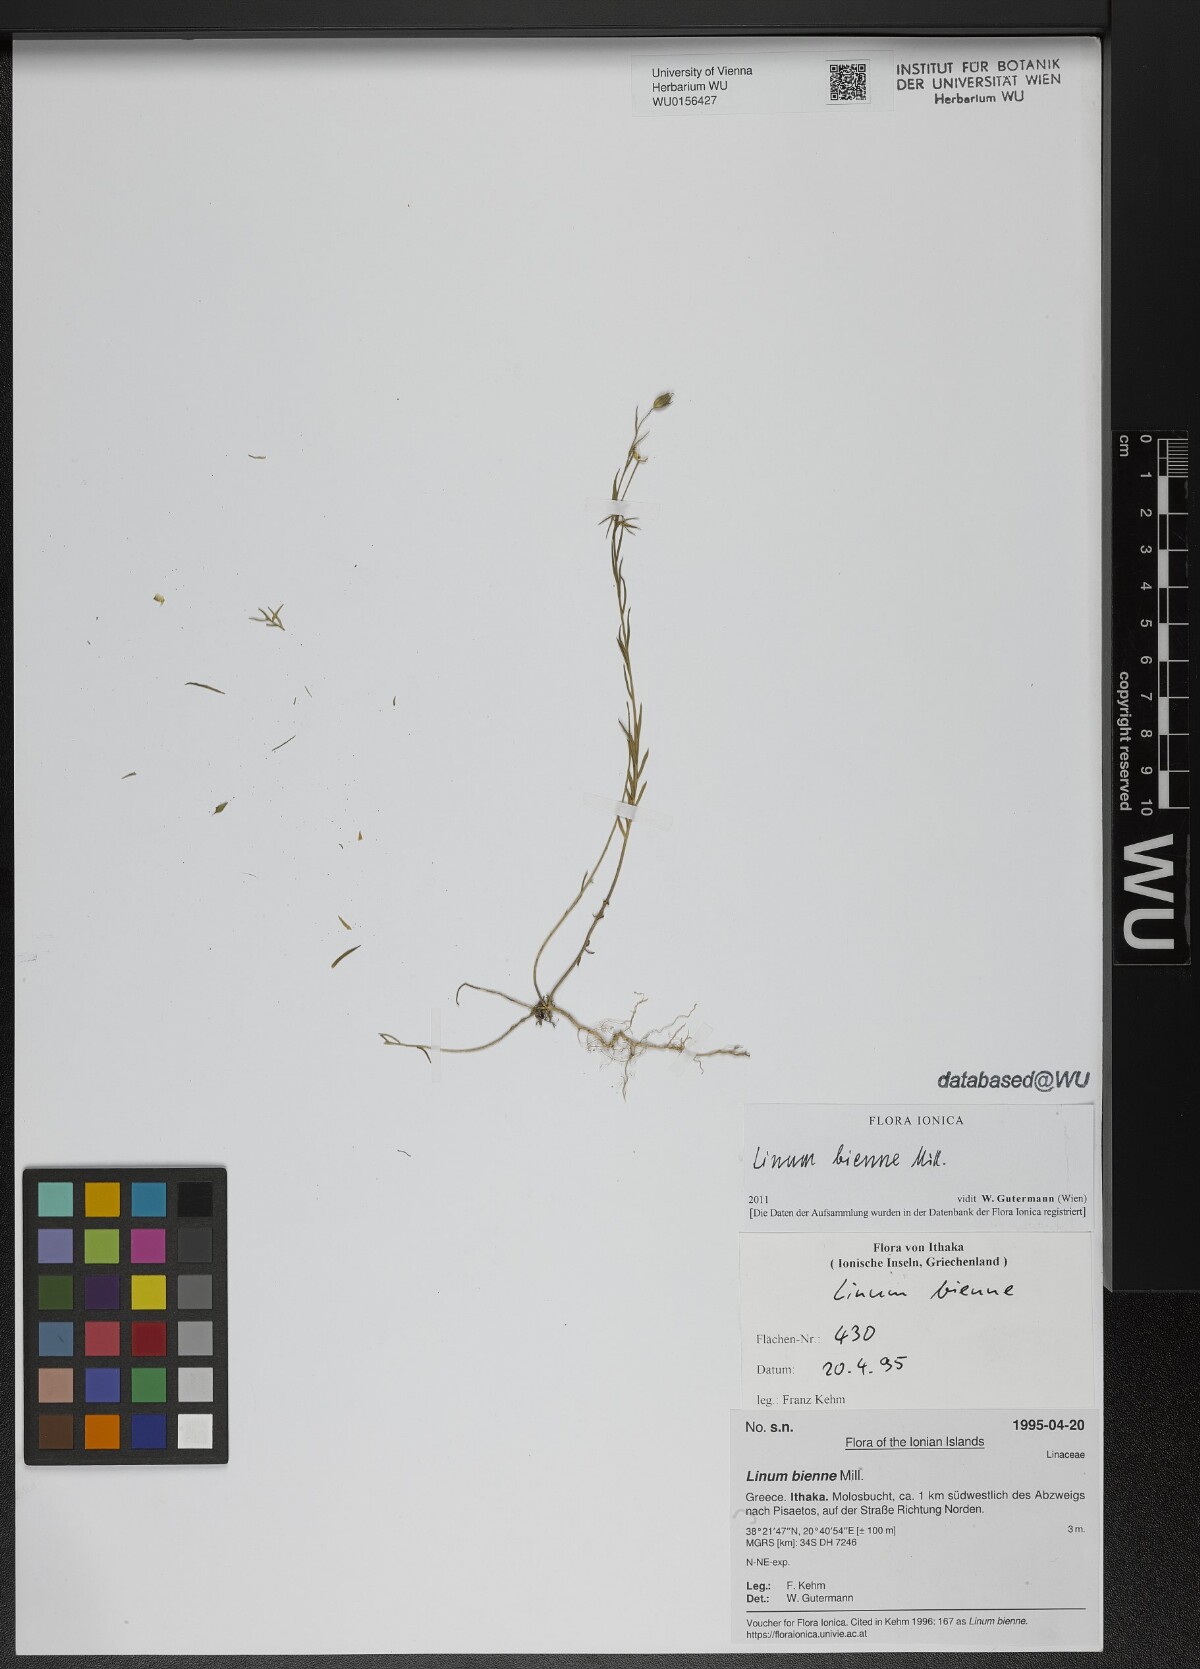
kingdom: Plantae
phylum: Tracheophyta
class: Magnoliopsida
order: Malpighiales
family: Linaceae
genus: Linum
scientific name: Linum bienne
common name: Pale flax
